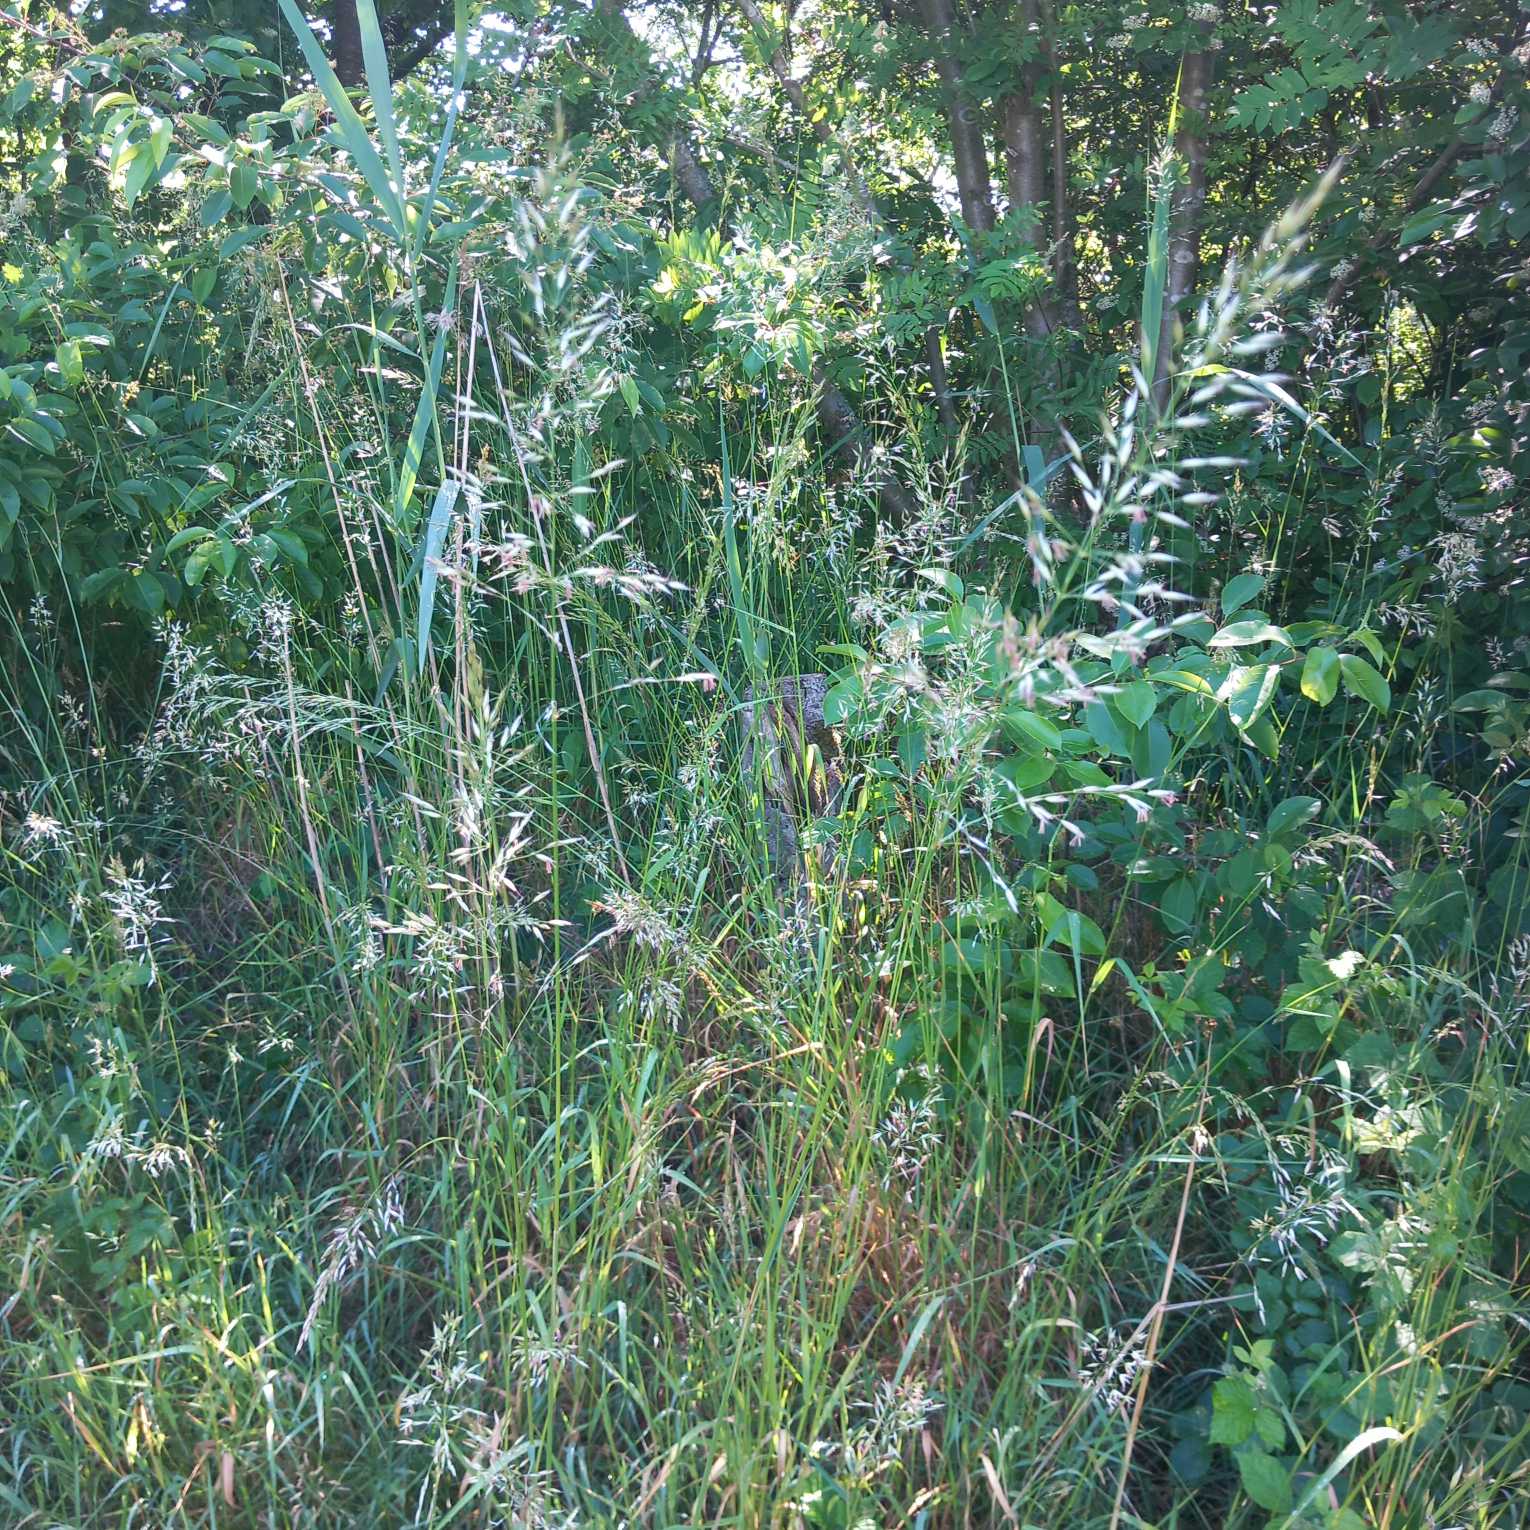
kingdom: Plantae
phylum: Tracheophyta
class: Liliopsida
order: Poales
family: Poaceae
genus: Arrhenatherum
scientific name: Arrhenatherum elatius
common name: Draphavre
